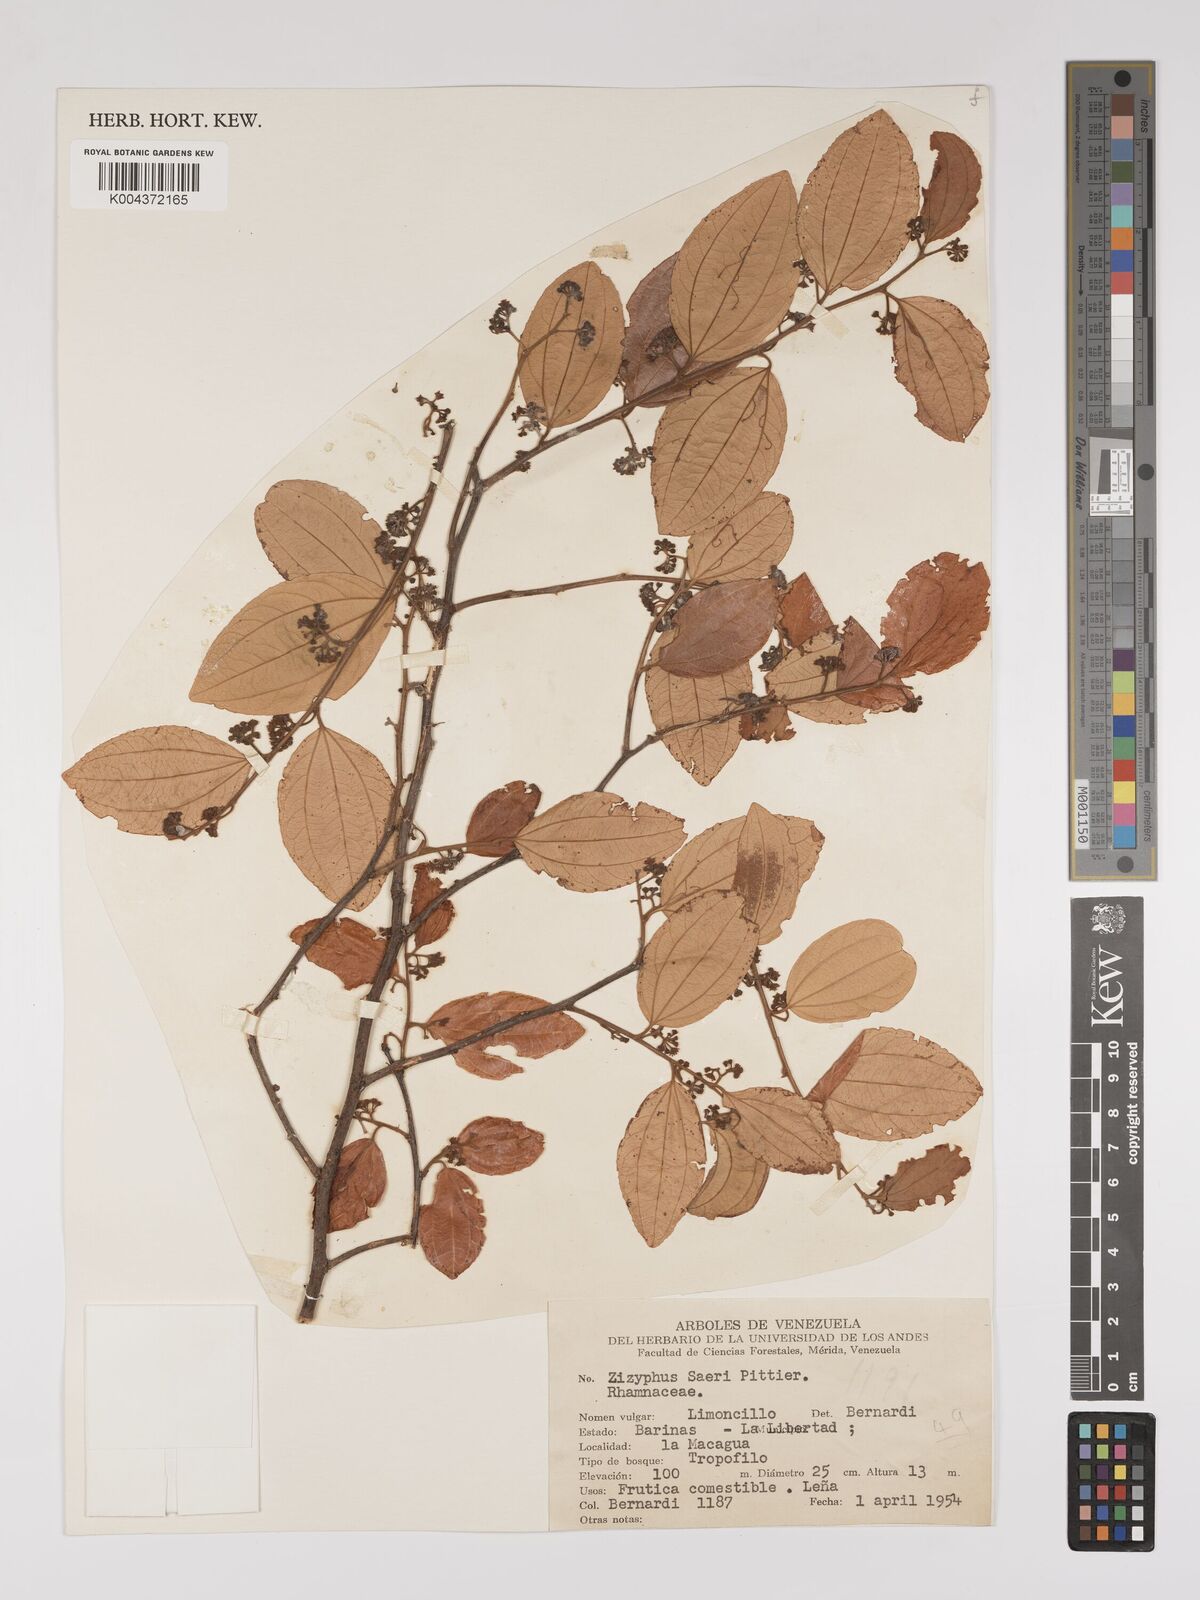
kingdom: Plantae
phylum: Tracheophyta
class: Magnoliopsida
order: Rosales
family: Rhamnaceae
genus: Sarcomphalus
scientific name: Sarcomphalus saeri
